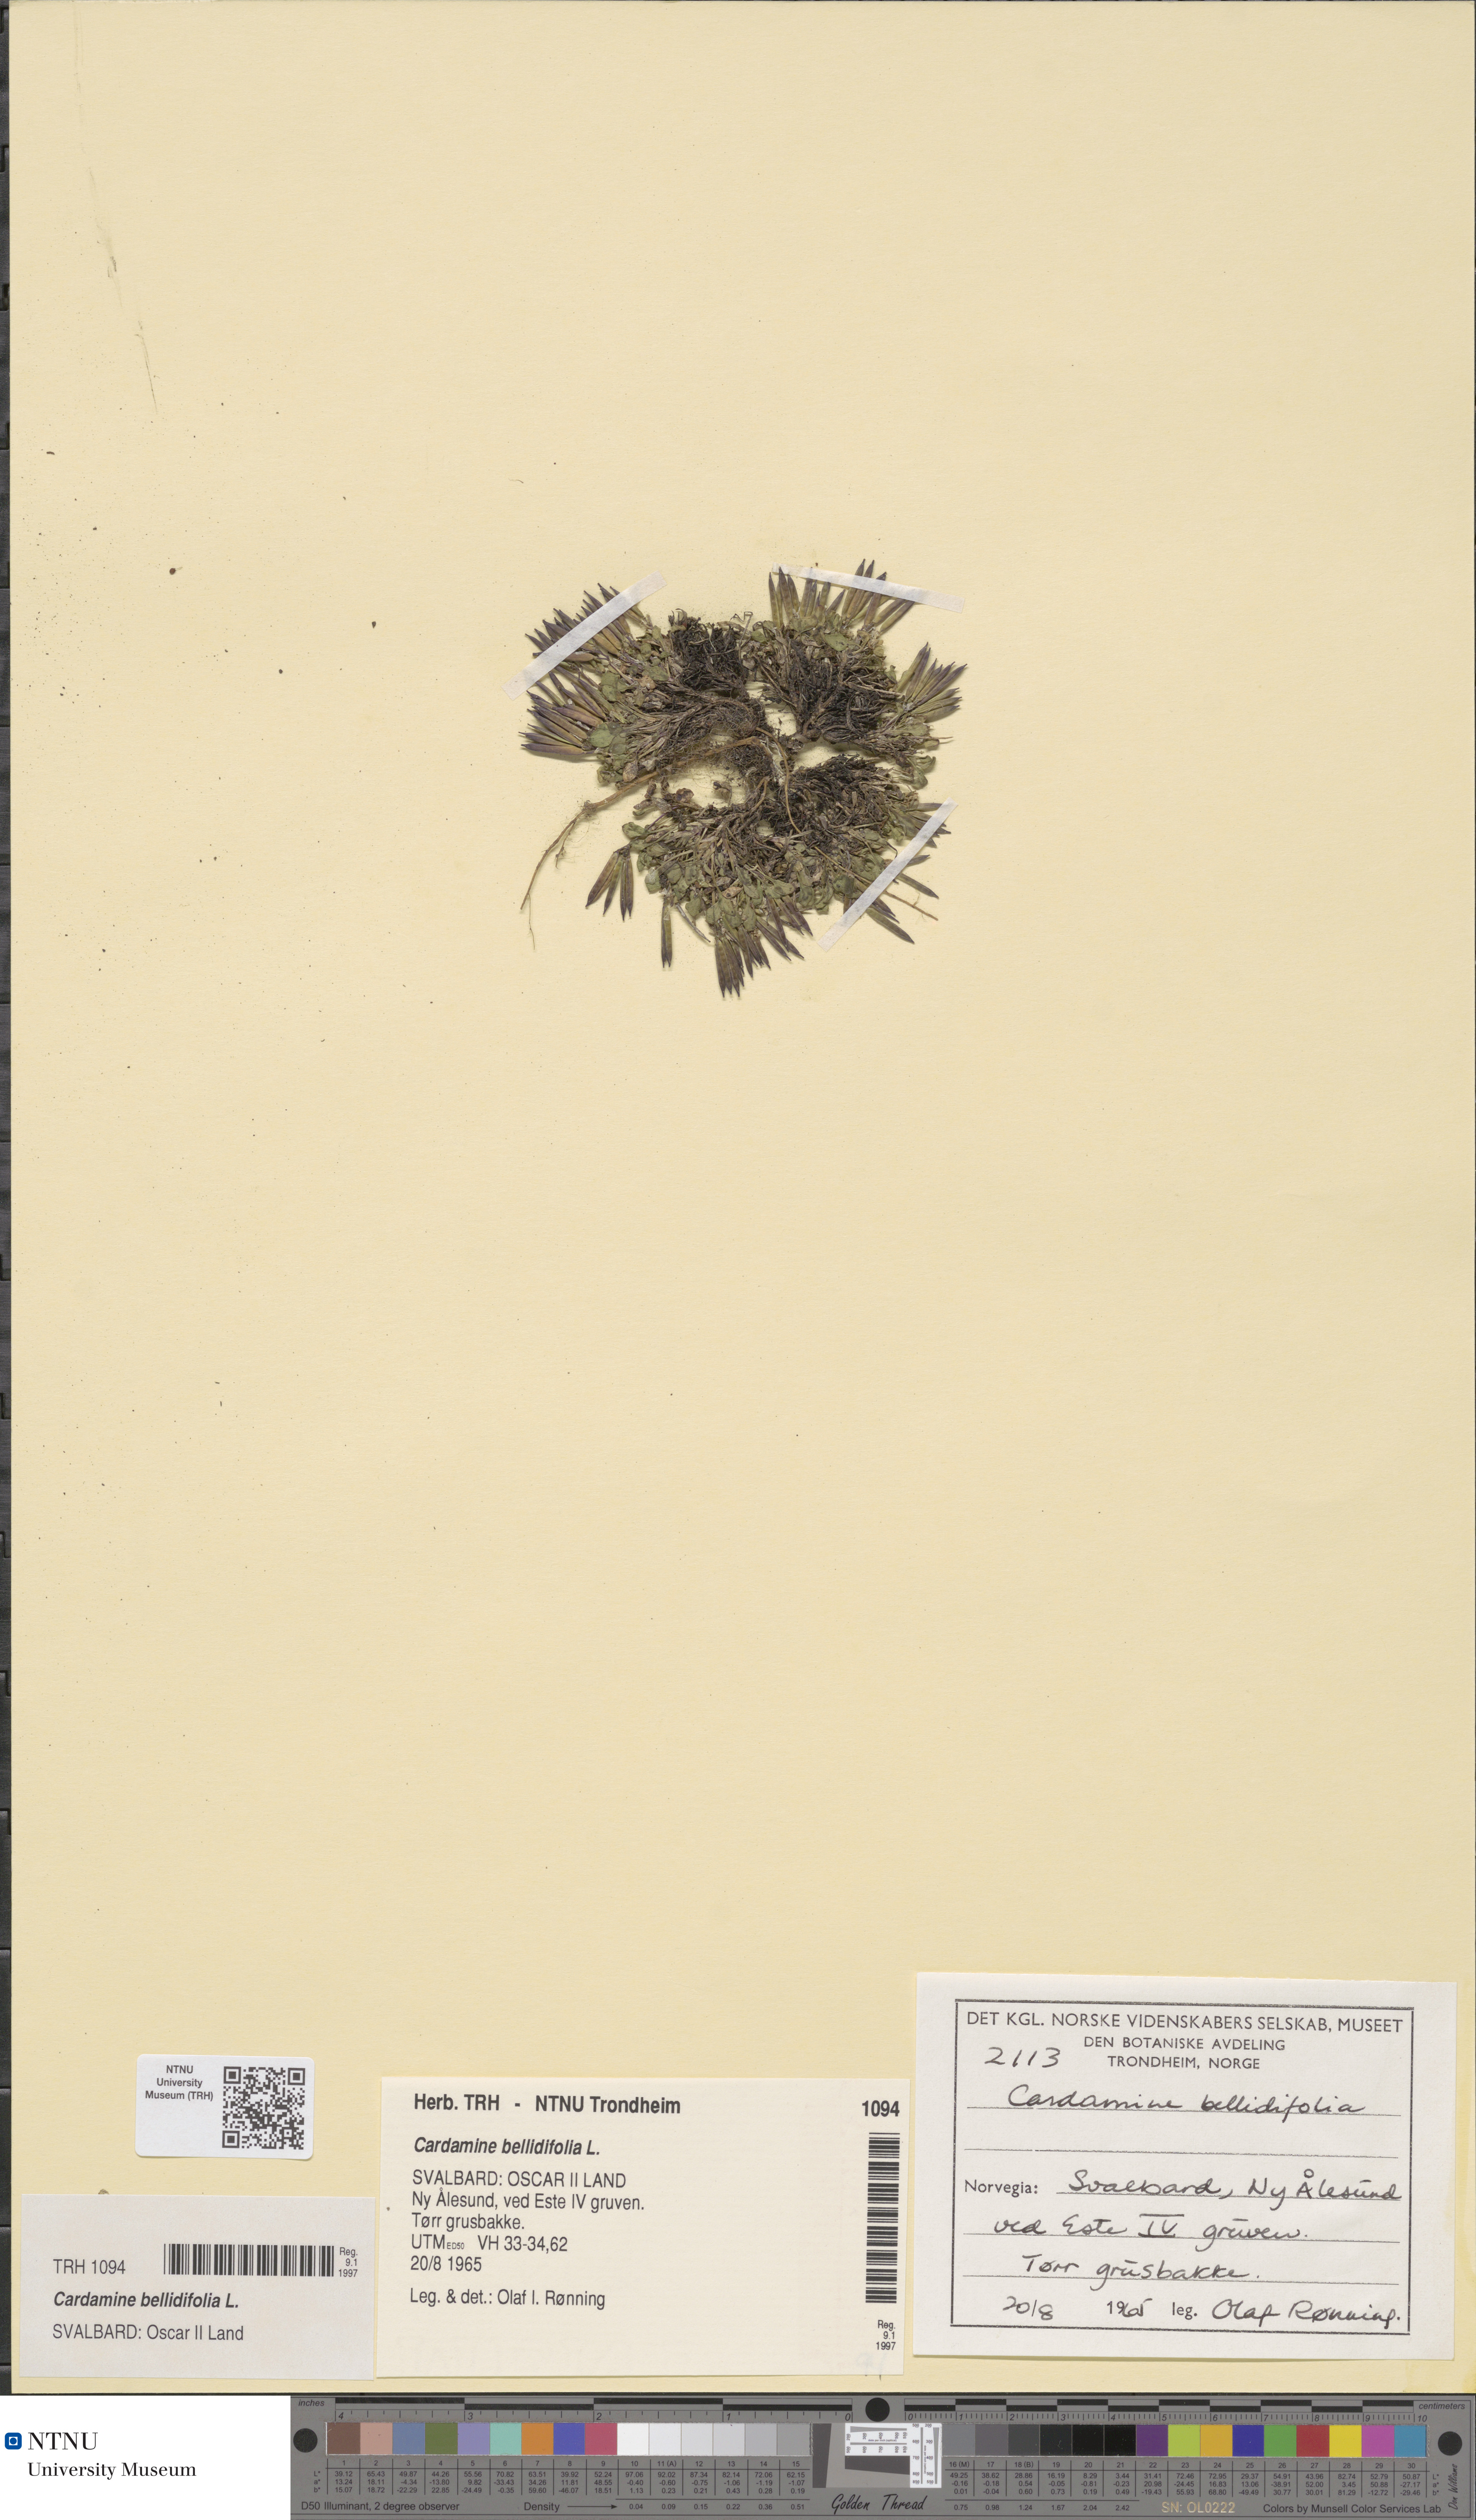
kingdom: Plantae
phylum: Tracheophyta
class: Magnoliopsida
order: Brassicales
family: Brassicaceae
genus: Cardamine
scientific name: Cardamine bellidifolia
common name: Alpine bittercress
